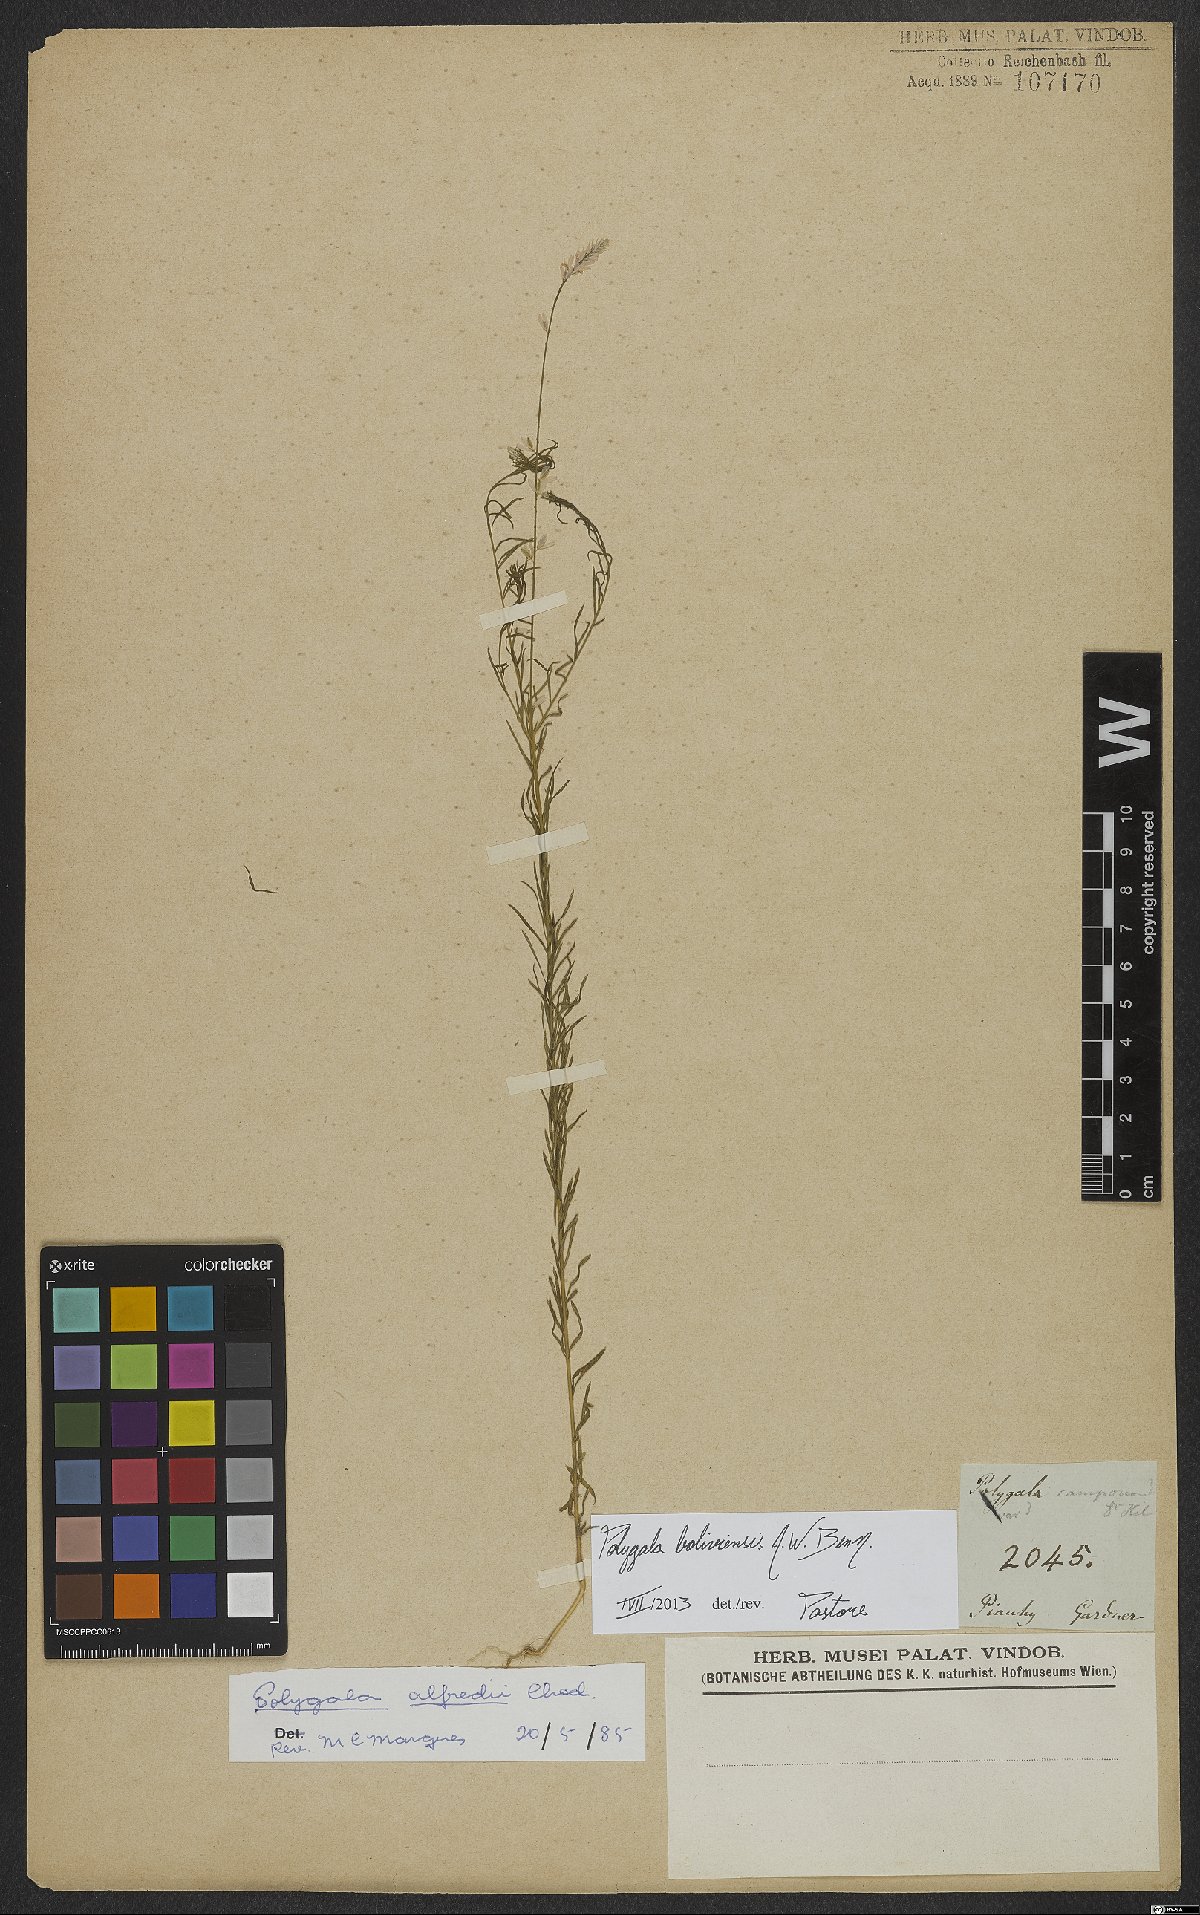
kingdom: Plantae
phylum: Tracheophyta
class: Magnoliopsida
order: Fabales
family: Polygalaceae
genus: Polygala
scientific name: Polygala boliviensis
